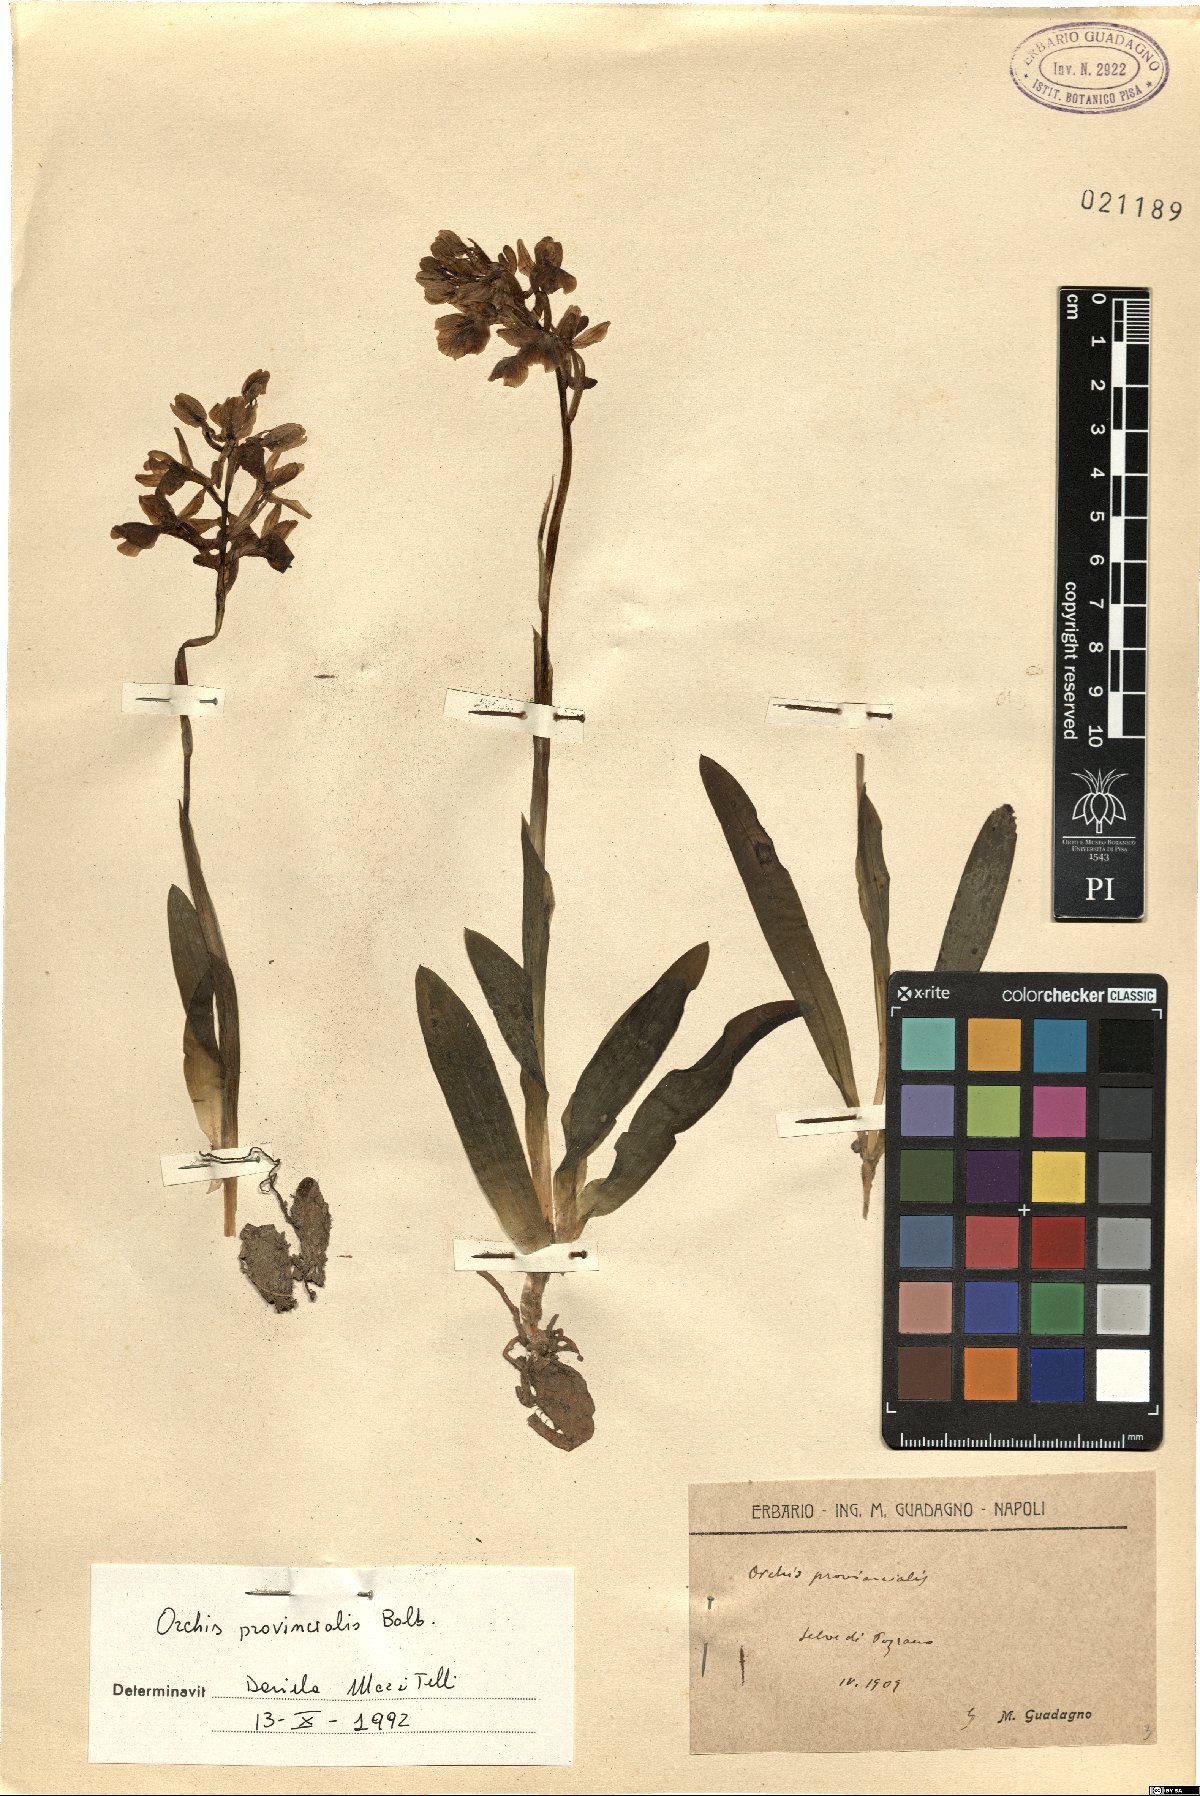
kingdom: Plantae
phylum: Tracheophyta
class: Liliopsida
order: Asparagales
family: Orchidaceae
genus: Orchis
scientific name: Orchis provincialis
